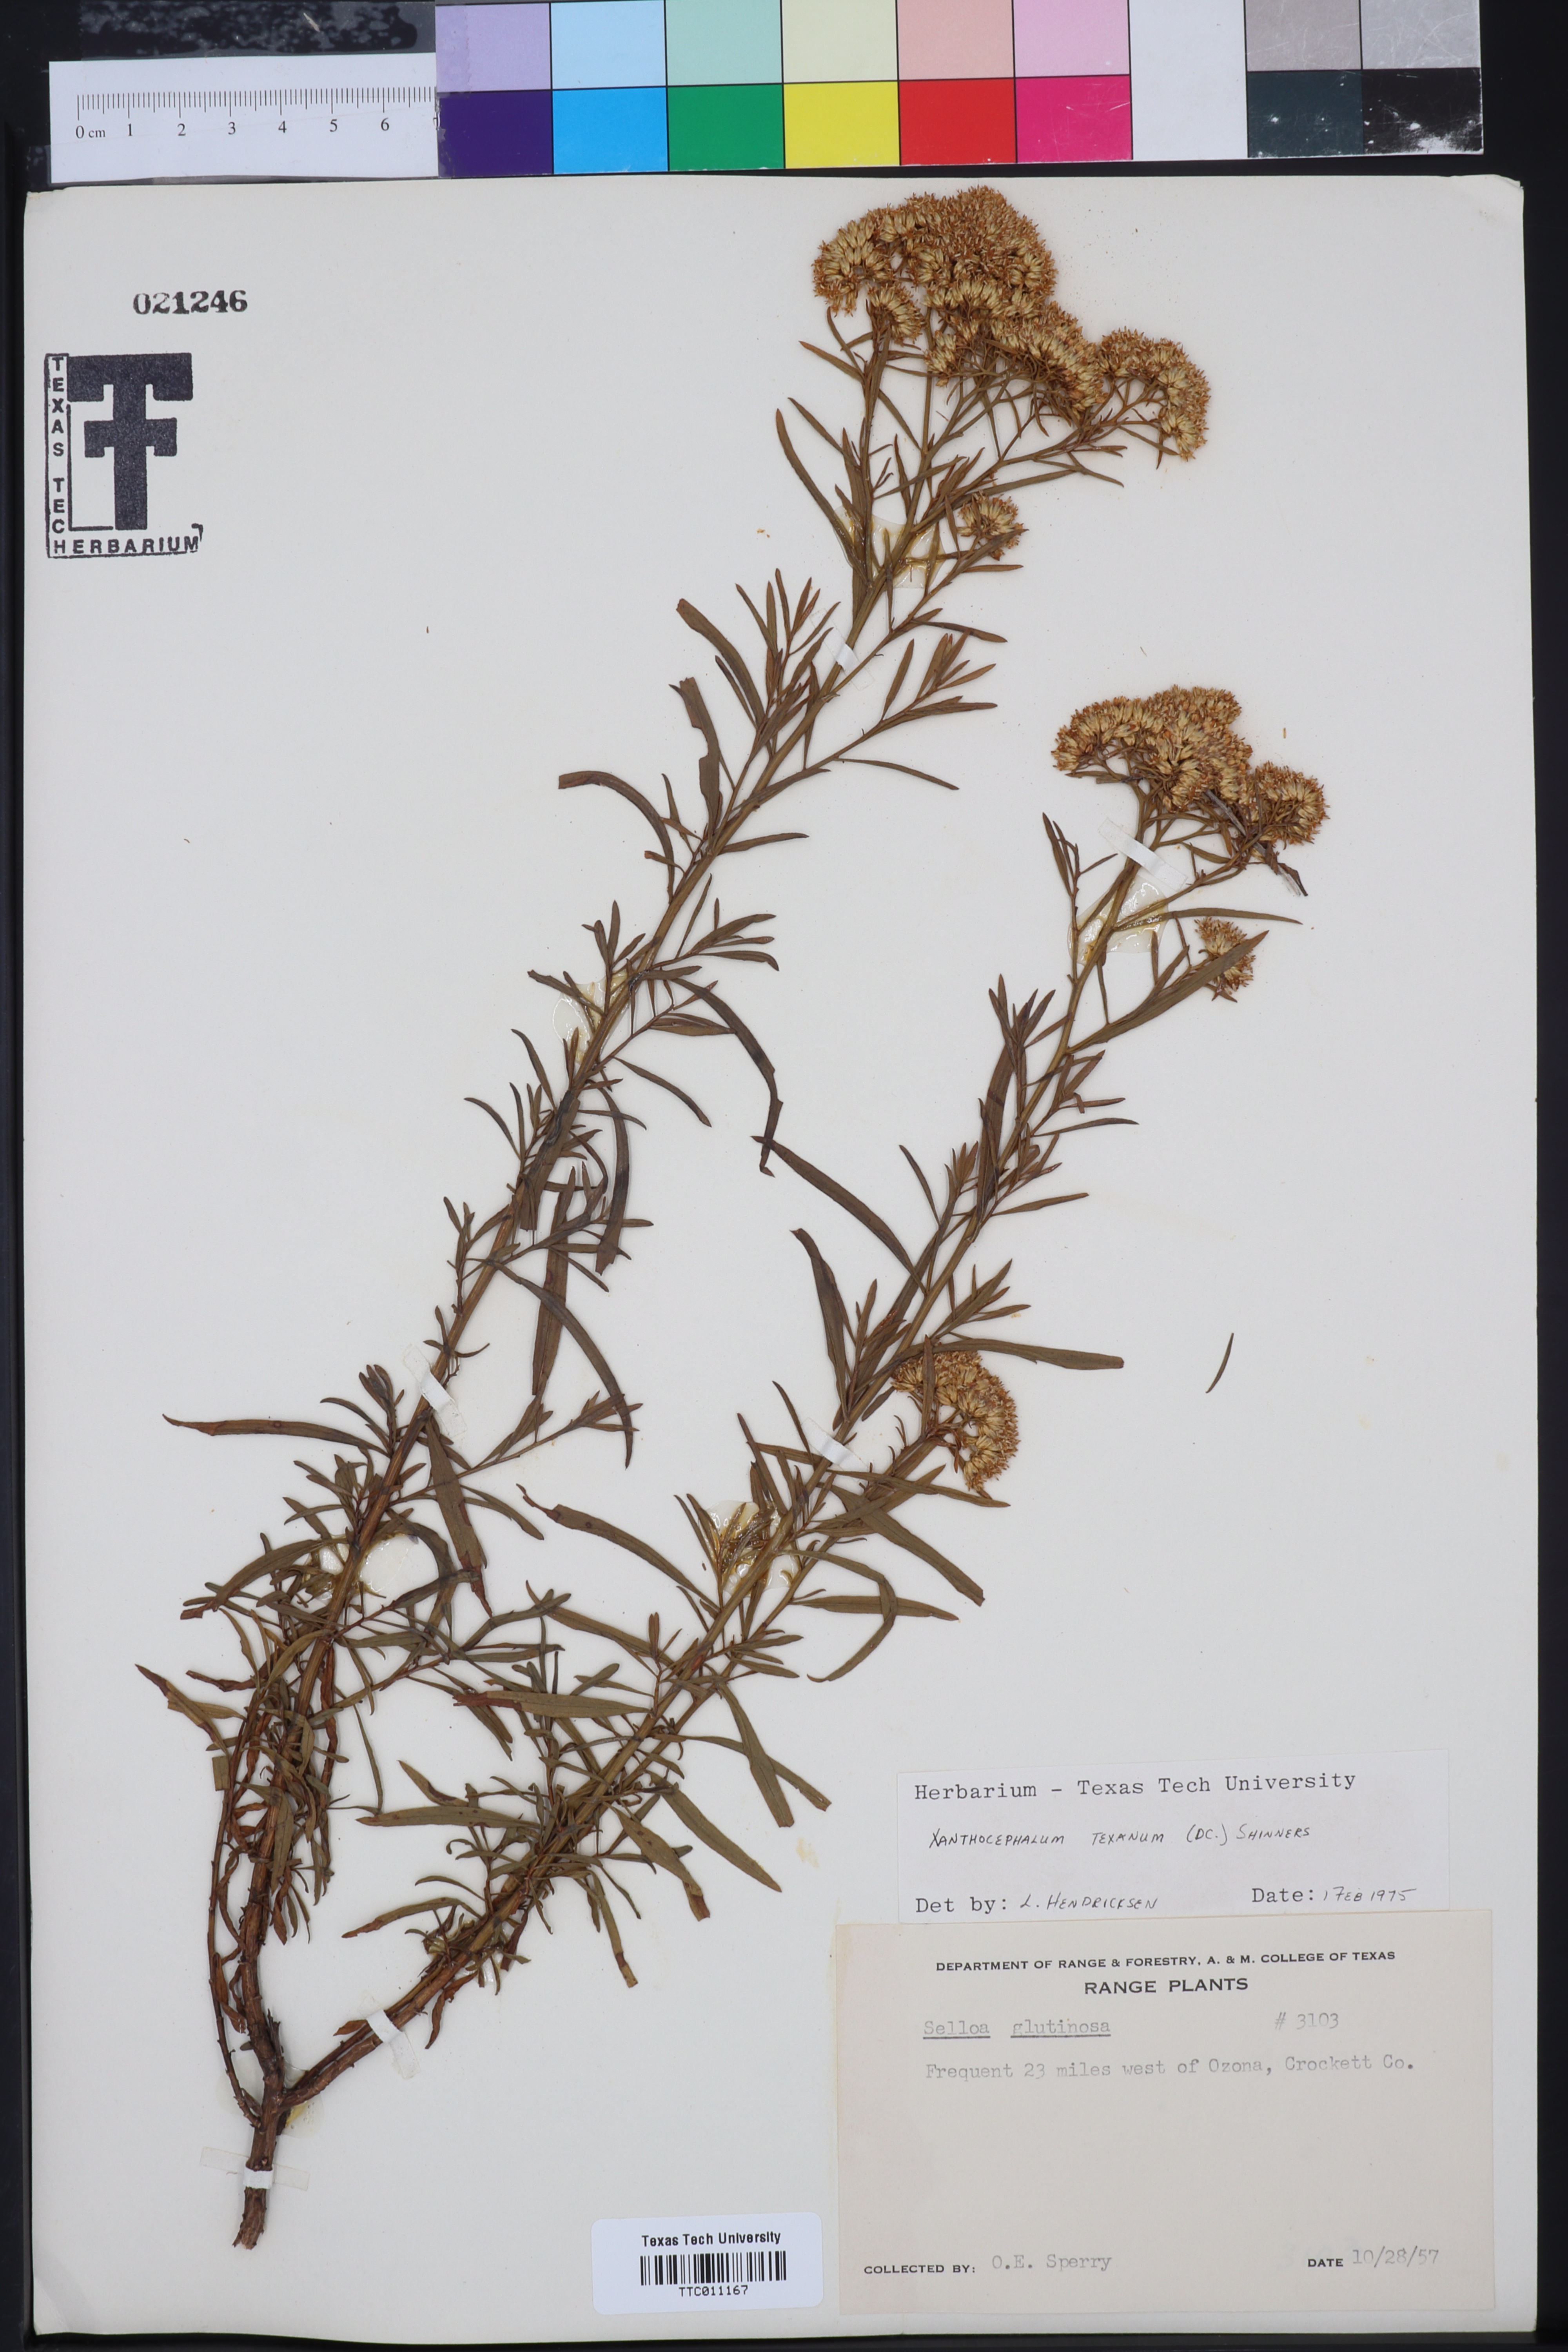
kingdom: Plantae
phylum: Tracheophyta
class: Magnoliopsida
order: Asterales
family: Asteraceae
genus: Gutierrezia
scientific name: Gutierrezia texana
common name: Texas snakeweed
